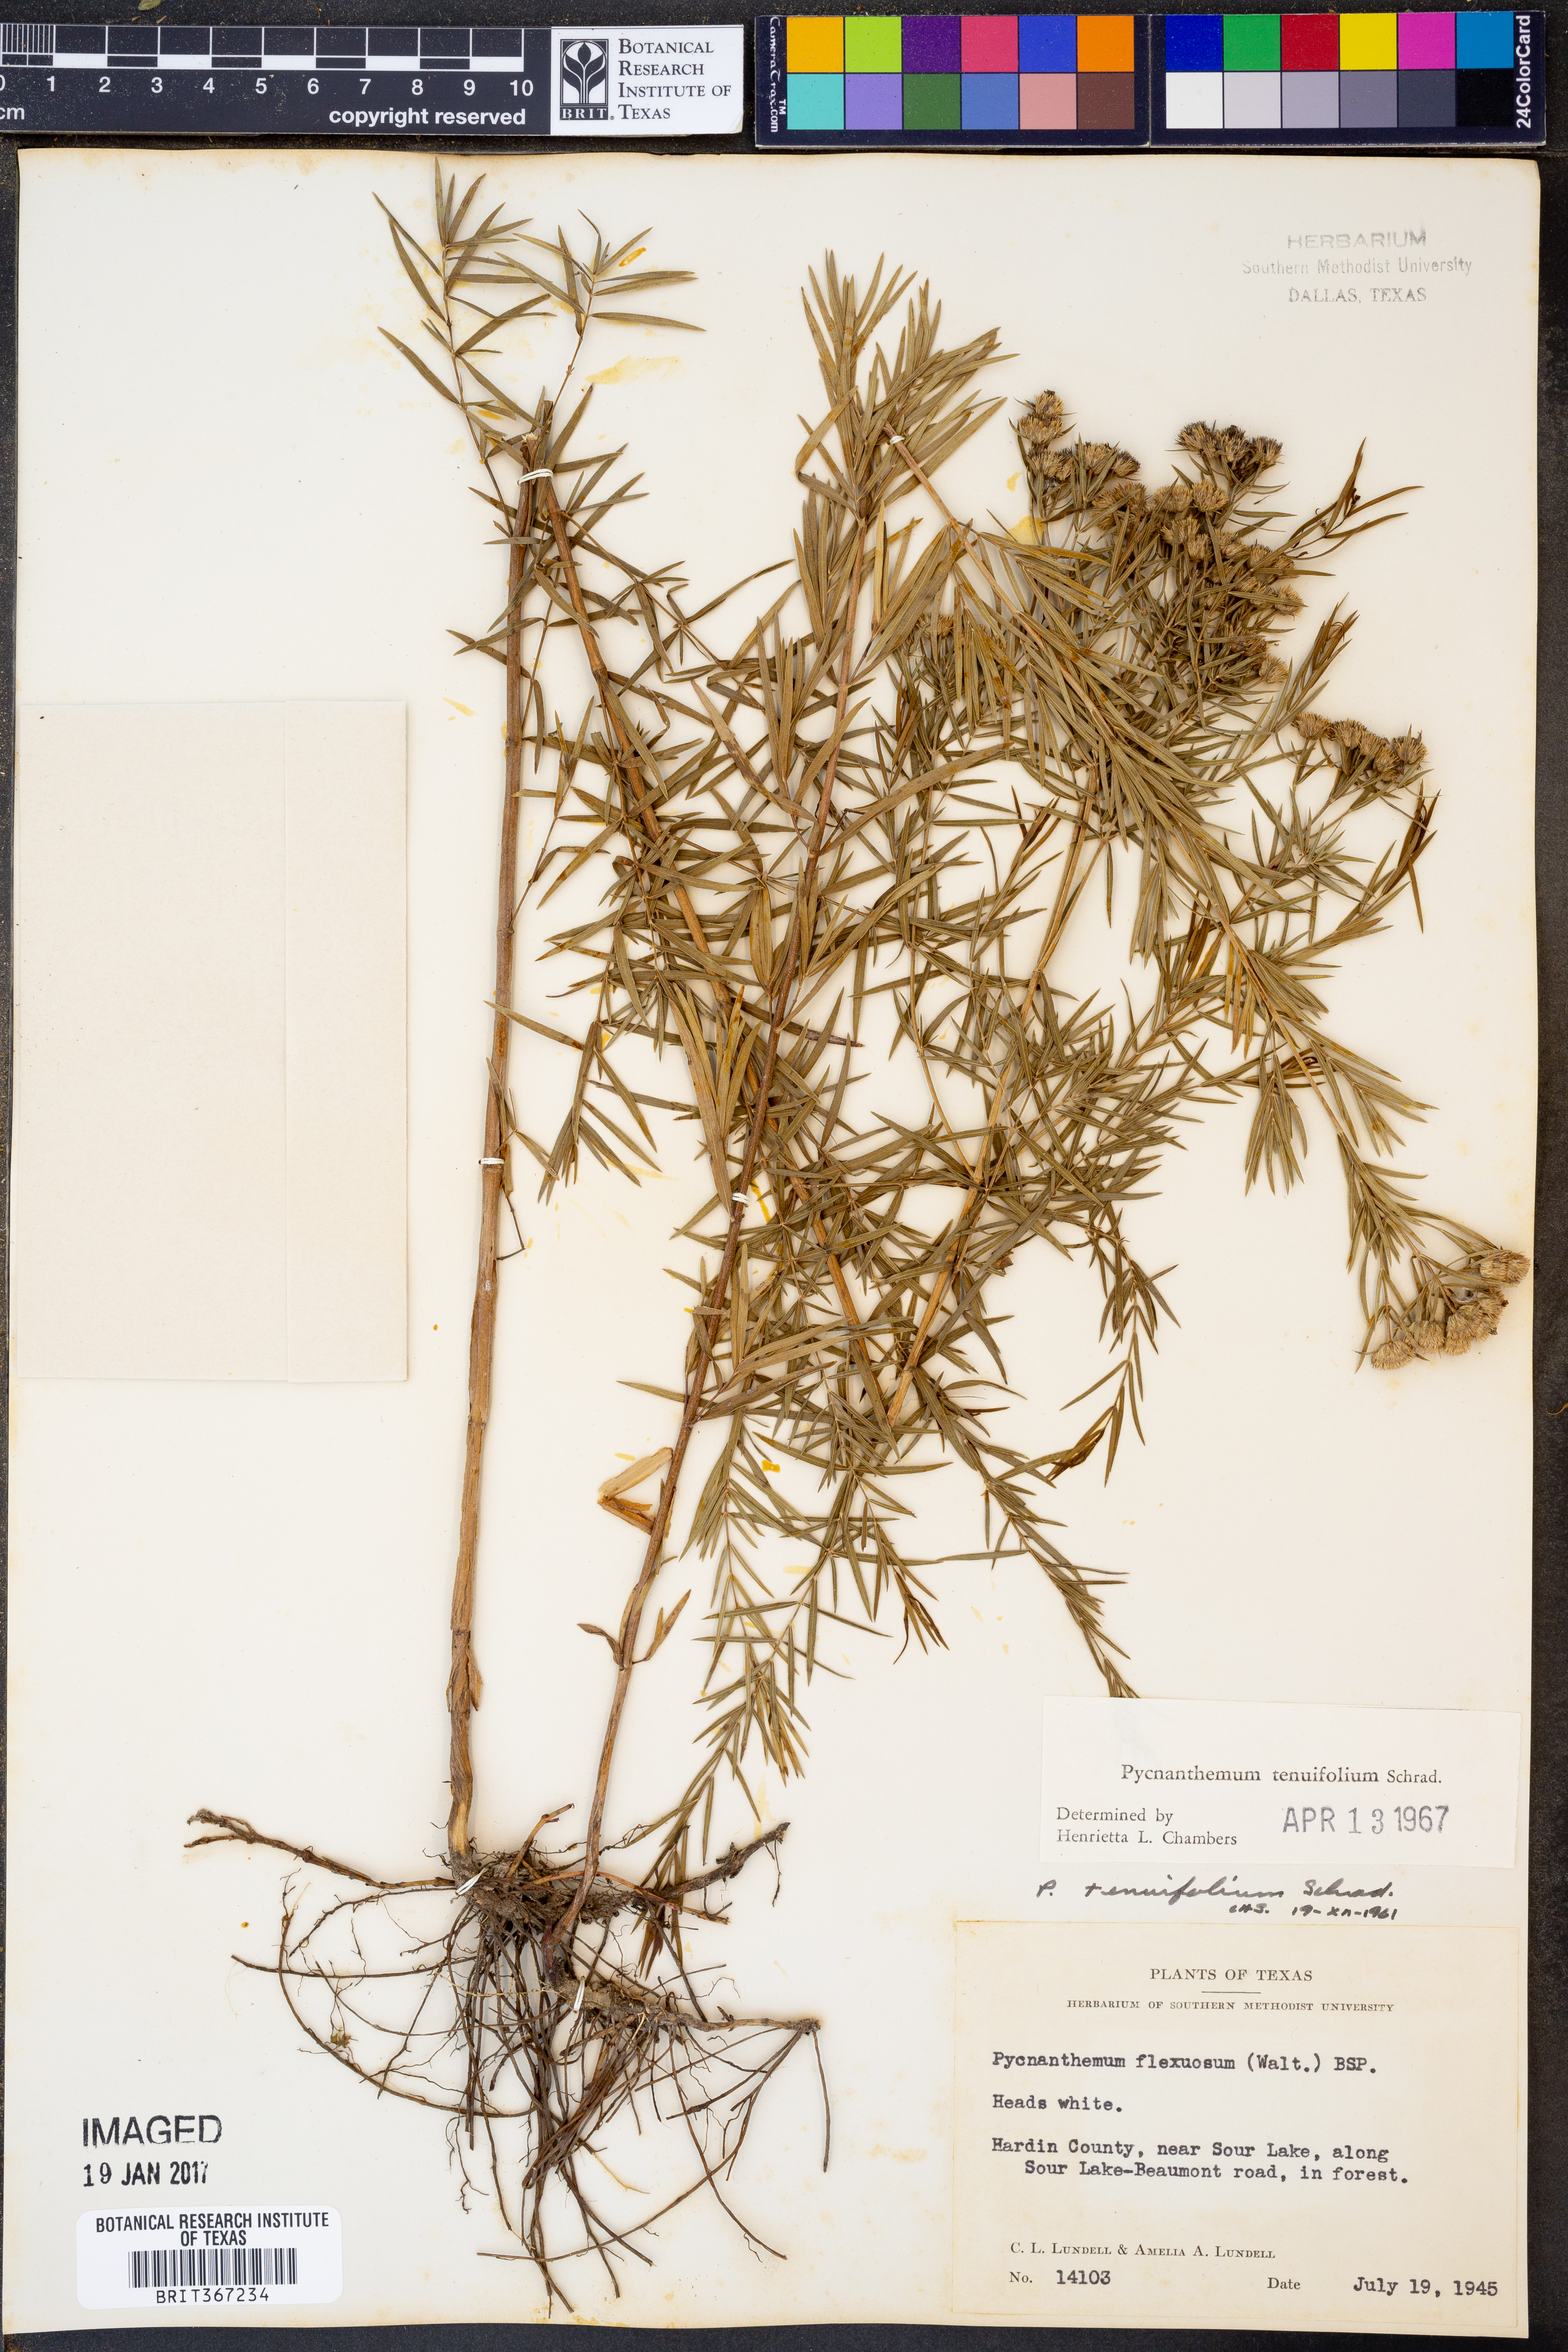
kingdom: Plantae
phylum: Tracheophyta
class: Magnoliopsida
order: Lamiales
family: Lamiaceae
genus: Pycnanthemum
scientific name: Pycnanthemum tenuifolium
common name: Narrow-leaf mountain-mint
